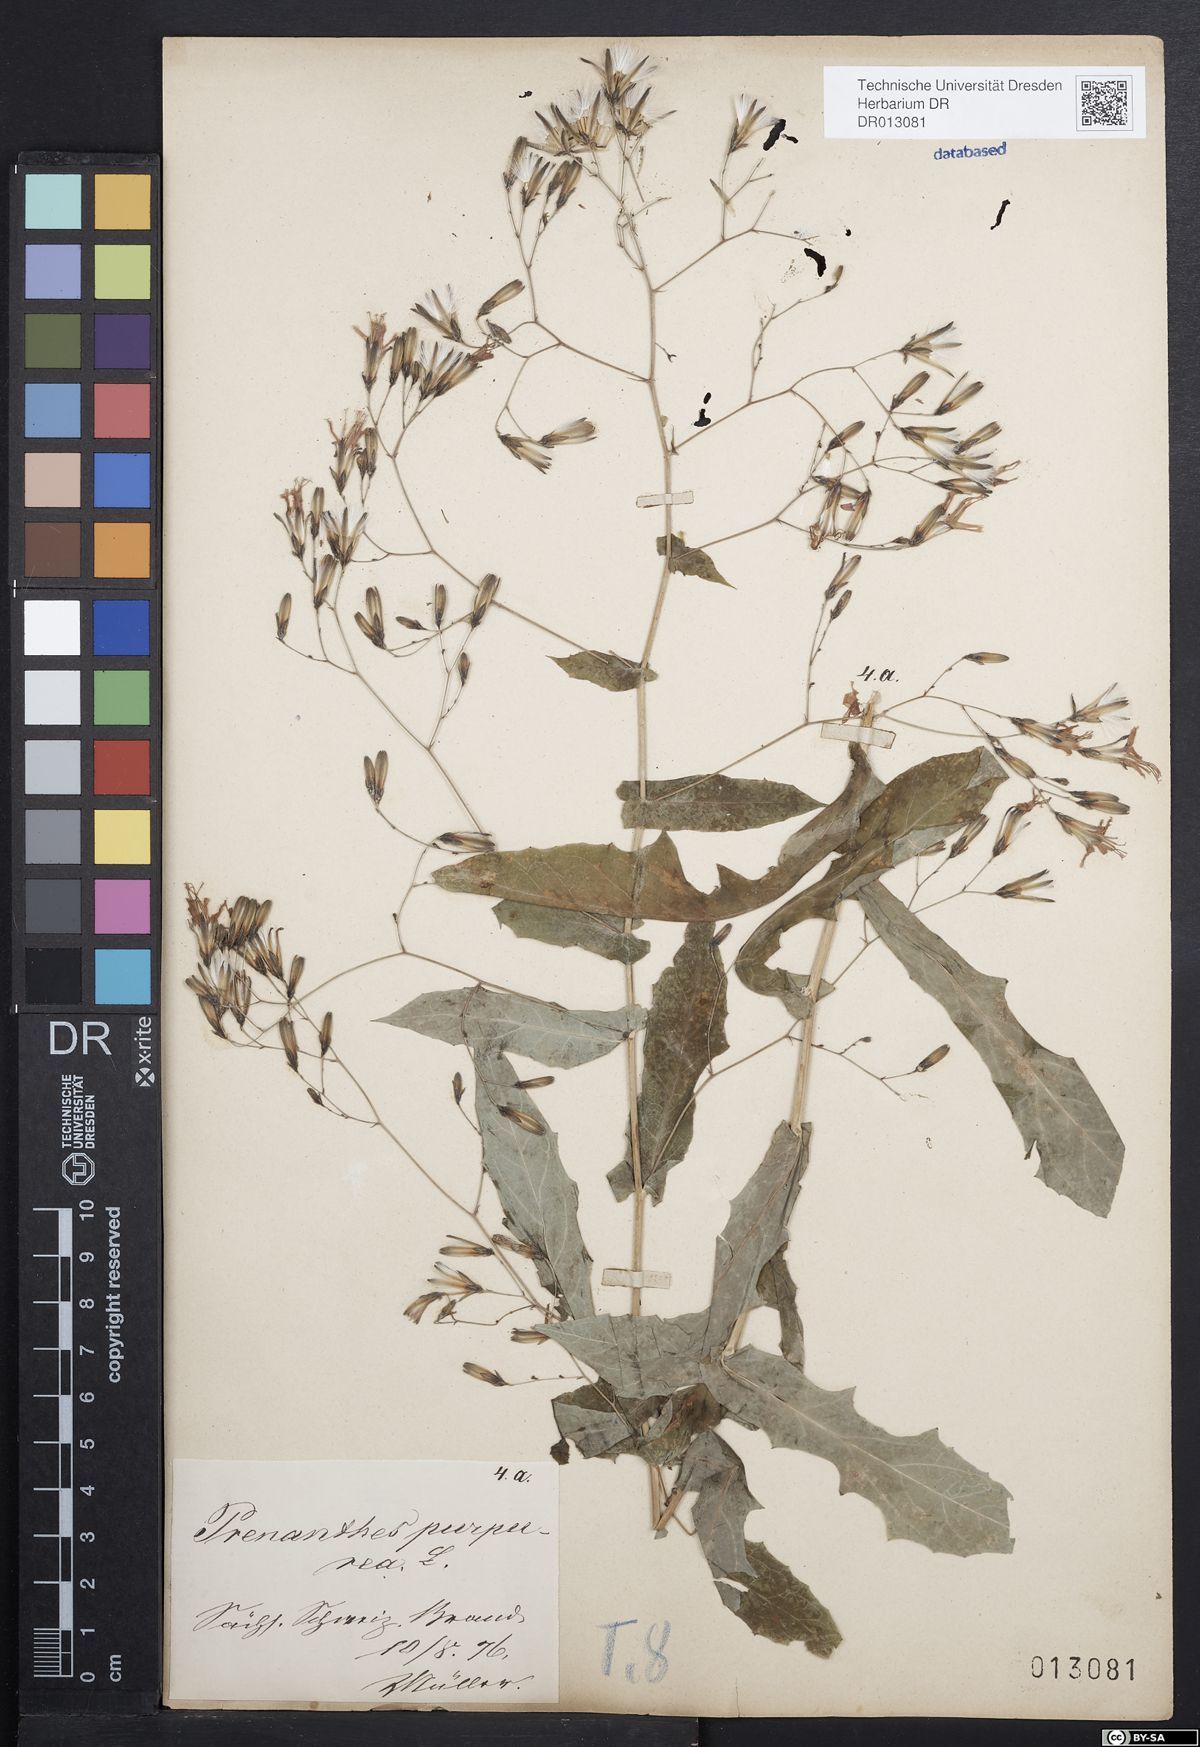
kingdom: Plantae
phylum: Tracheophyta
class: Magnoliopsida
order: Asterales
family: Asteraceae
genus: Prenanthes
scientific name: Prenanthes purpurea
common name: Purple lettuce
